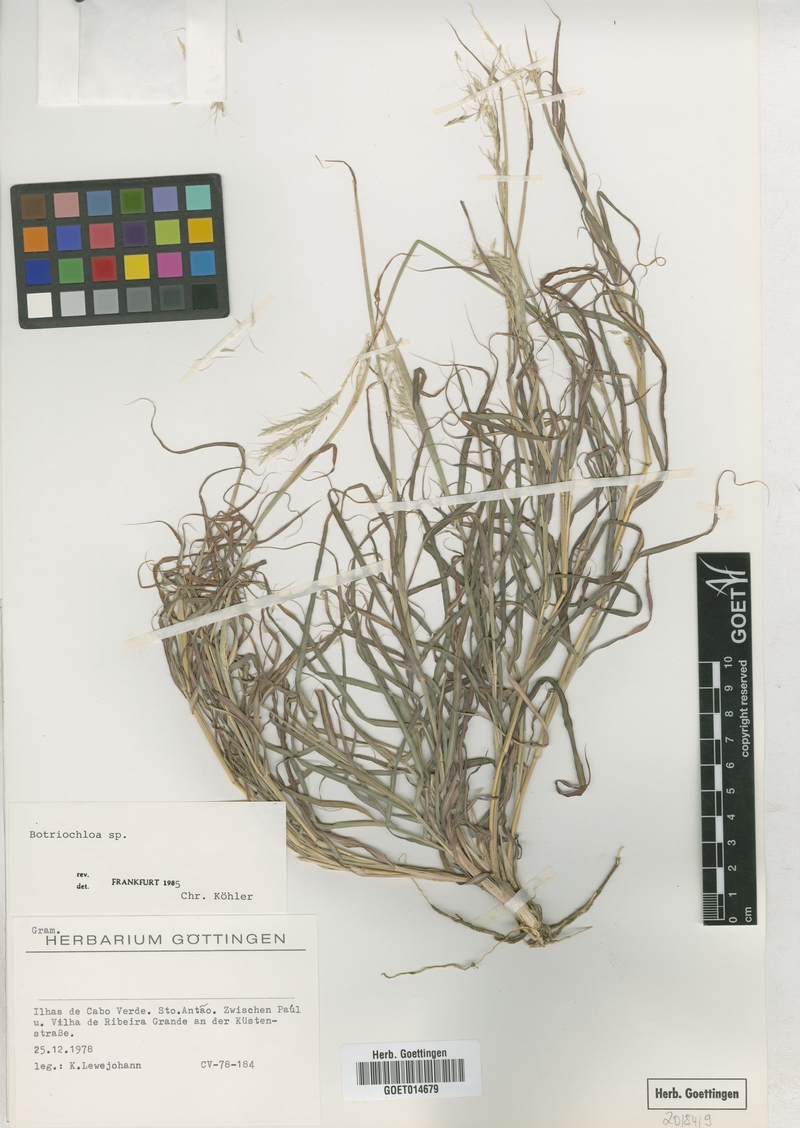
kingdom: Plantae
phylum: Tracheophyta
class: Liliopsida
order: Poales
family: Poaceae
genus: Bothriochloa
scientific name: Bothriochloa
